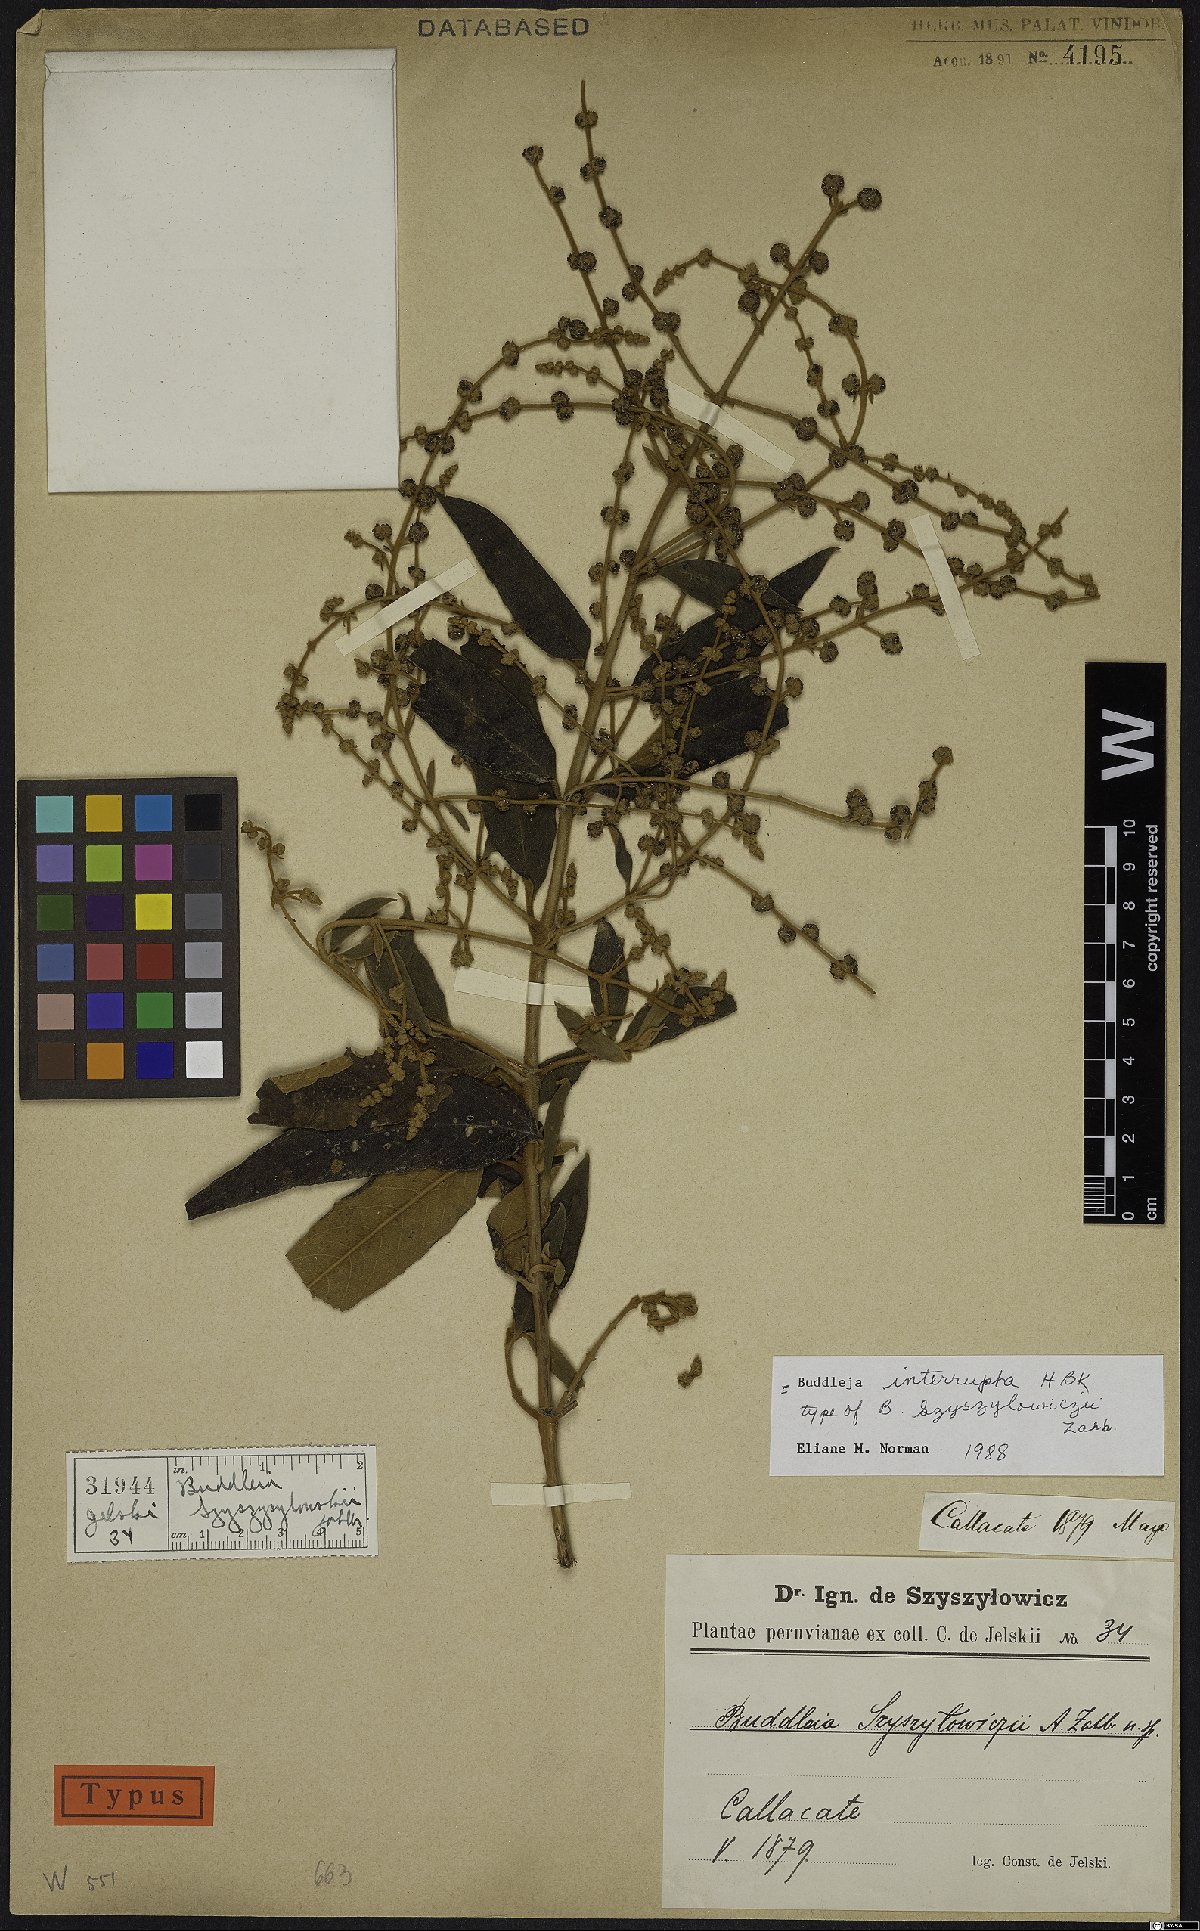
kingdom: Plantae
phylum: Tracheophyta
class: Magnoliopsida
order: Lamiales
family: Scrophulariaceae
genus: Buddleja
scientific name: Buddleja interrupta
